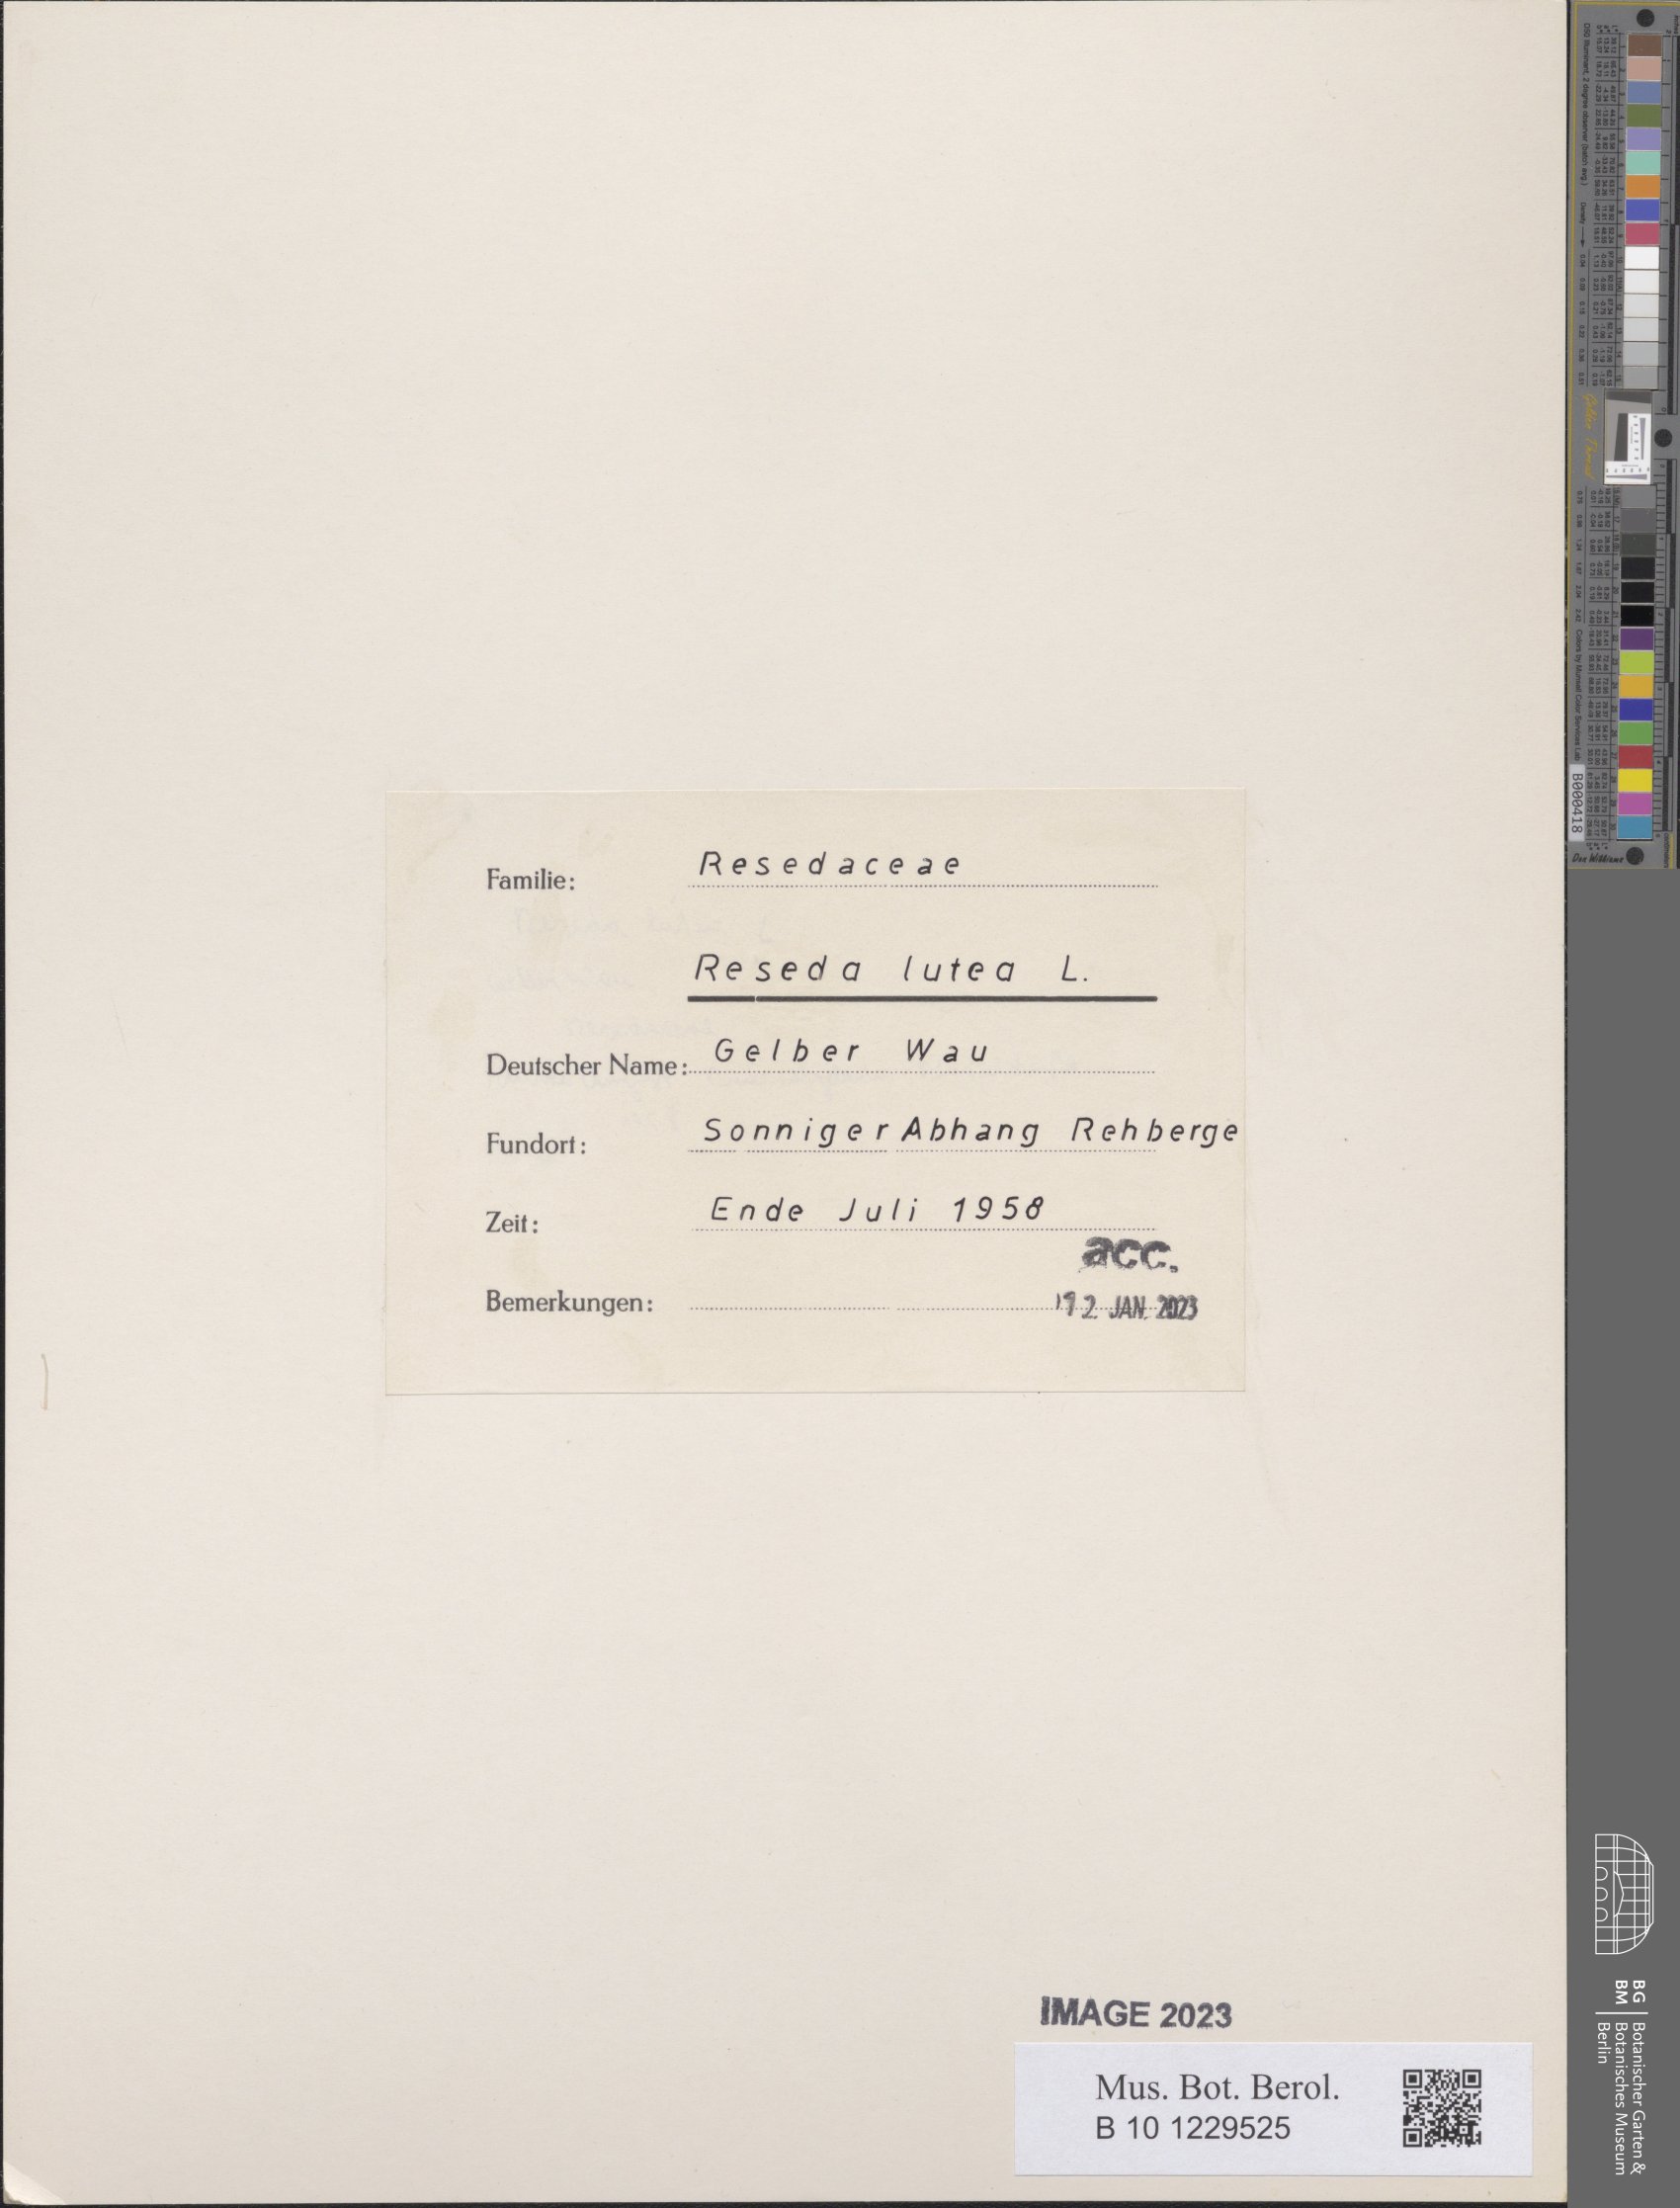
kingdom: Plantae
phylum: Tracheophyta
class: Magnoliopsida
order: Brassicales
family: Resedaceae
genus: Reseda
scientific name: Reseda lutea
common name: Wild mignonette
